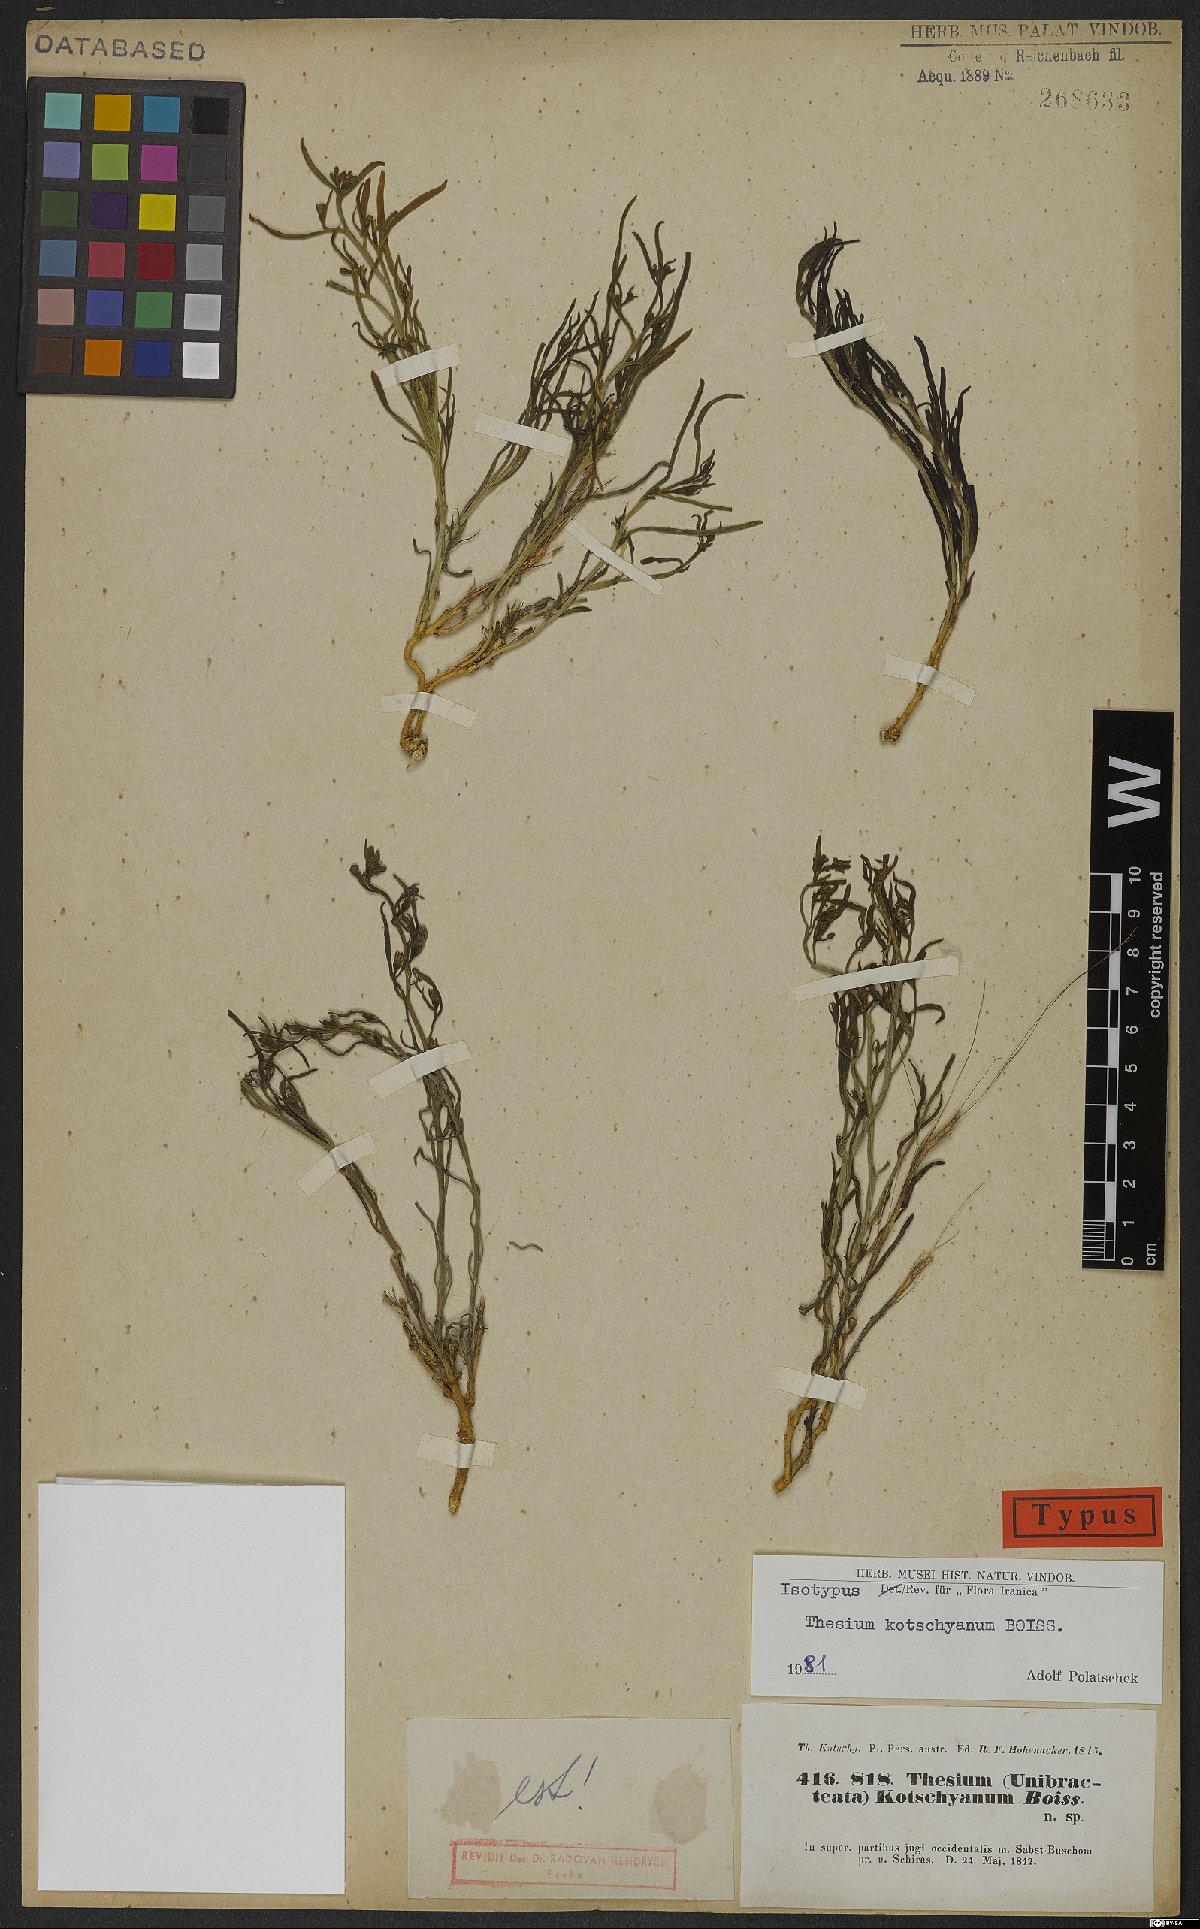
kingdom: Plantae
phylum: Tracheophyta
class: Magnoliopsida
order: Santalales
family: Thesiaceae
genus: Thesium
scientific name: Thesium kotschyanum
